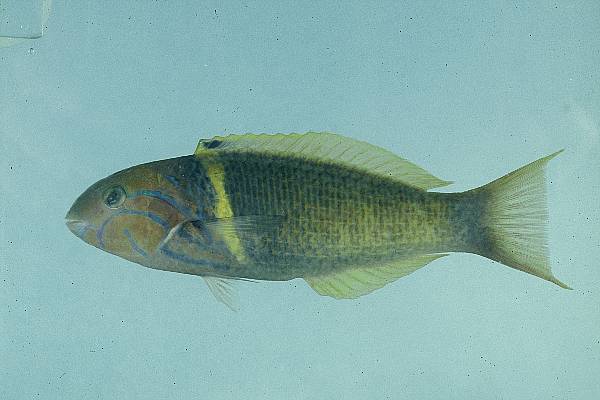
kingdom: Animalia
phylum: Chordata
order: Perciformes
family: Labridae
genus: Thalassoma
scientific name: Thalassoma hebraicum
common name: Goldbar wrasse
